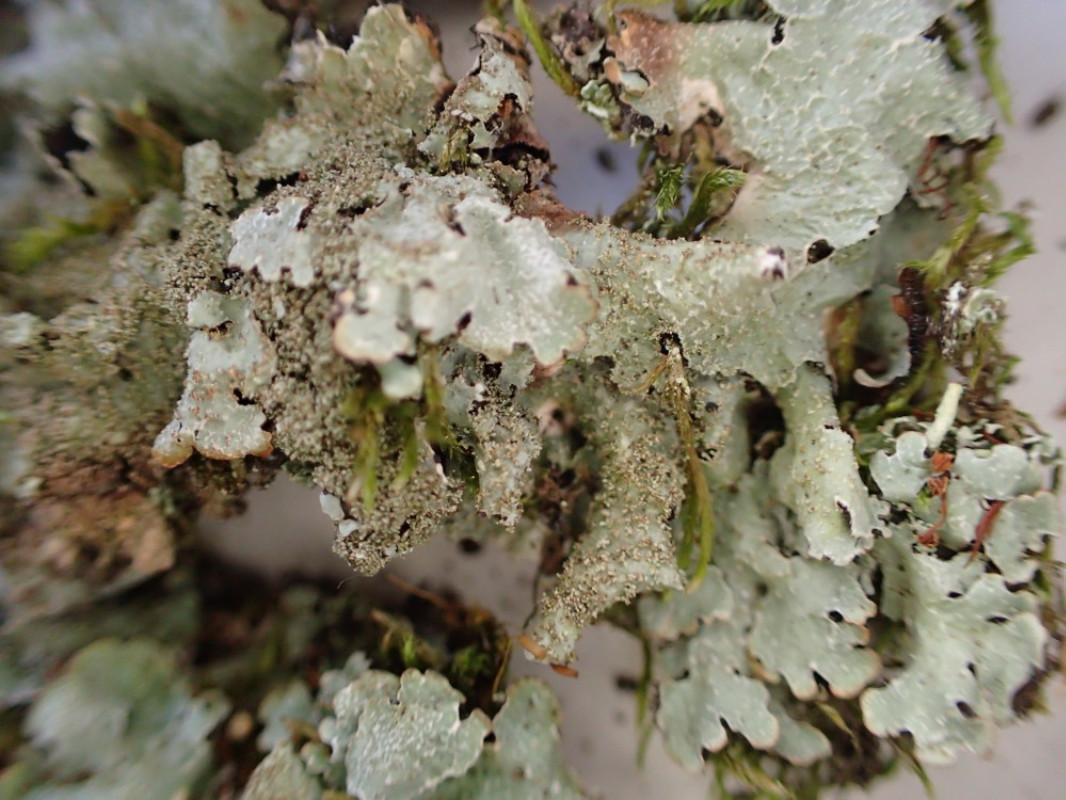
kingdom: Fungi
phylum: Ascomycota
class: Lecanoromycetes
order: Lecanorales
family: Parmeliaceae
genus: Parmelia
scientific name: Parmelia ernstiae
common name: rimstift-skållav
